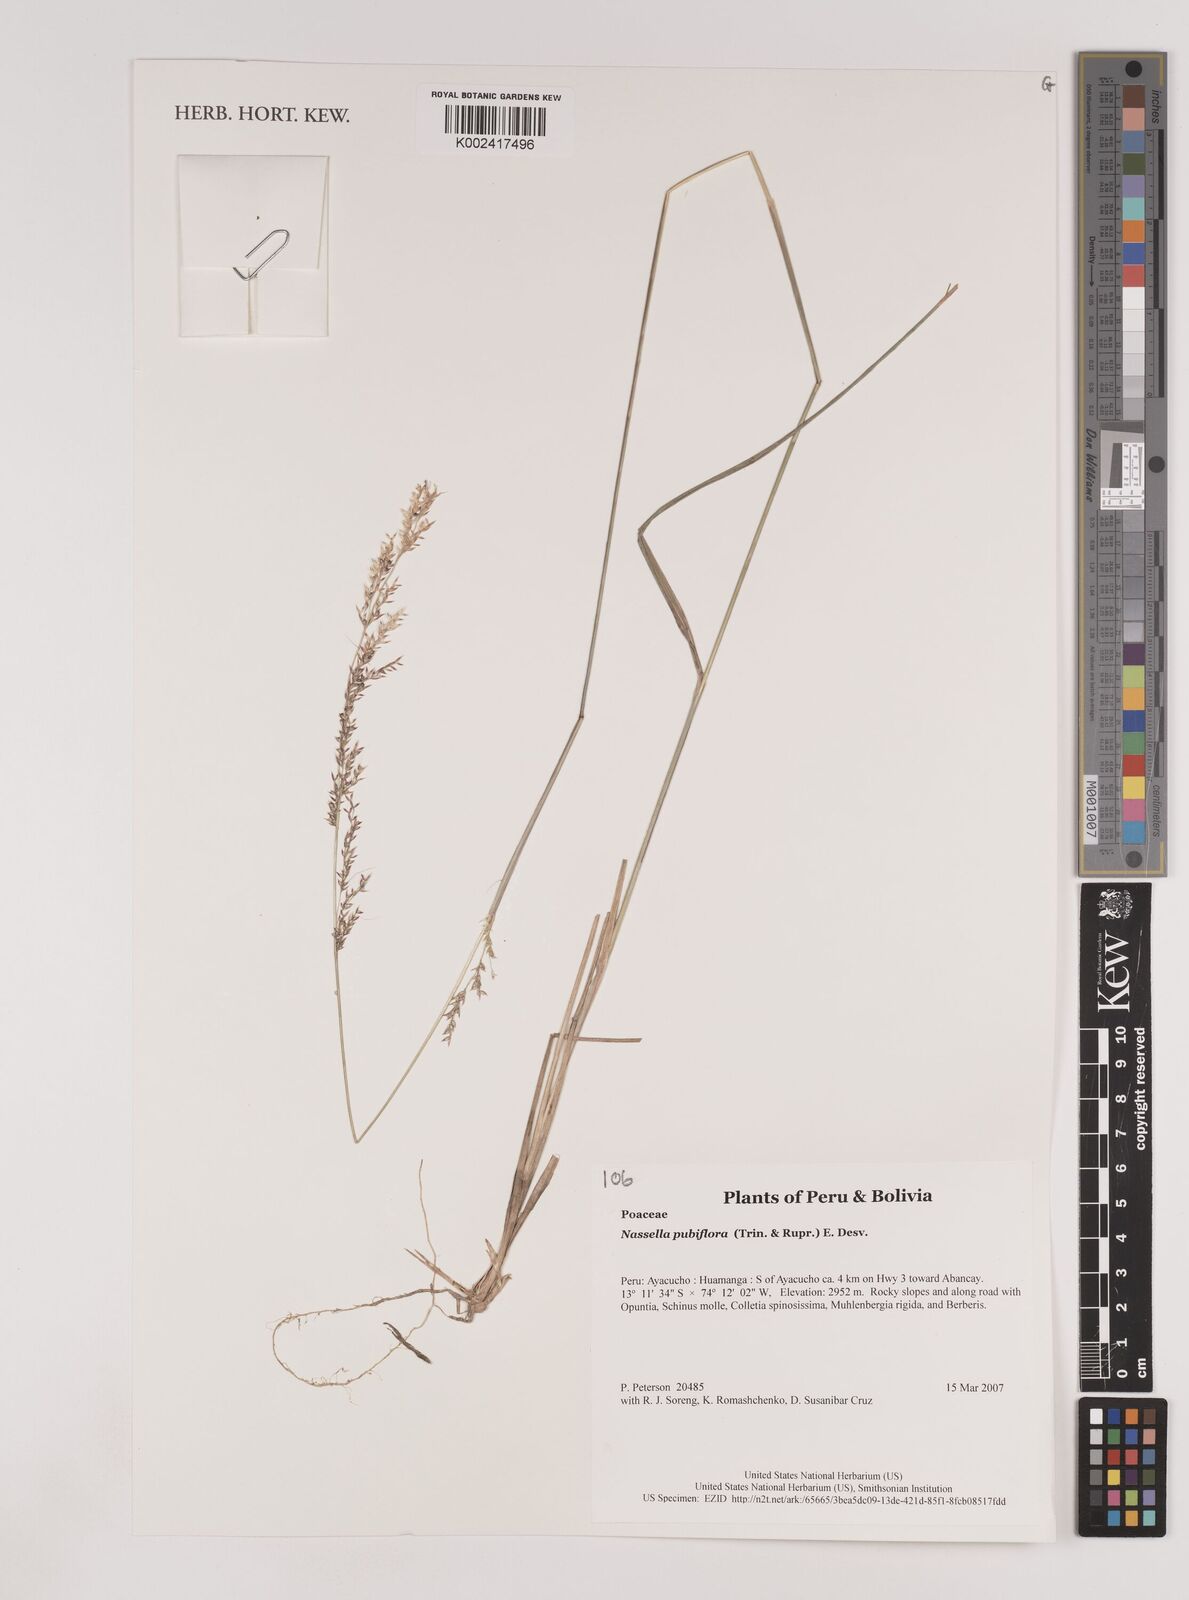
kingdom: Plantae
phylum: Tracheophyta
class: Liliopsida
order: Poales
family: Poaceae
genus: Nassella
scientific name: Nassella pubiflora
